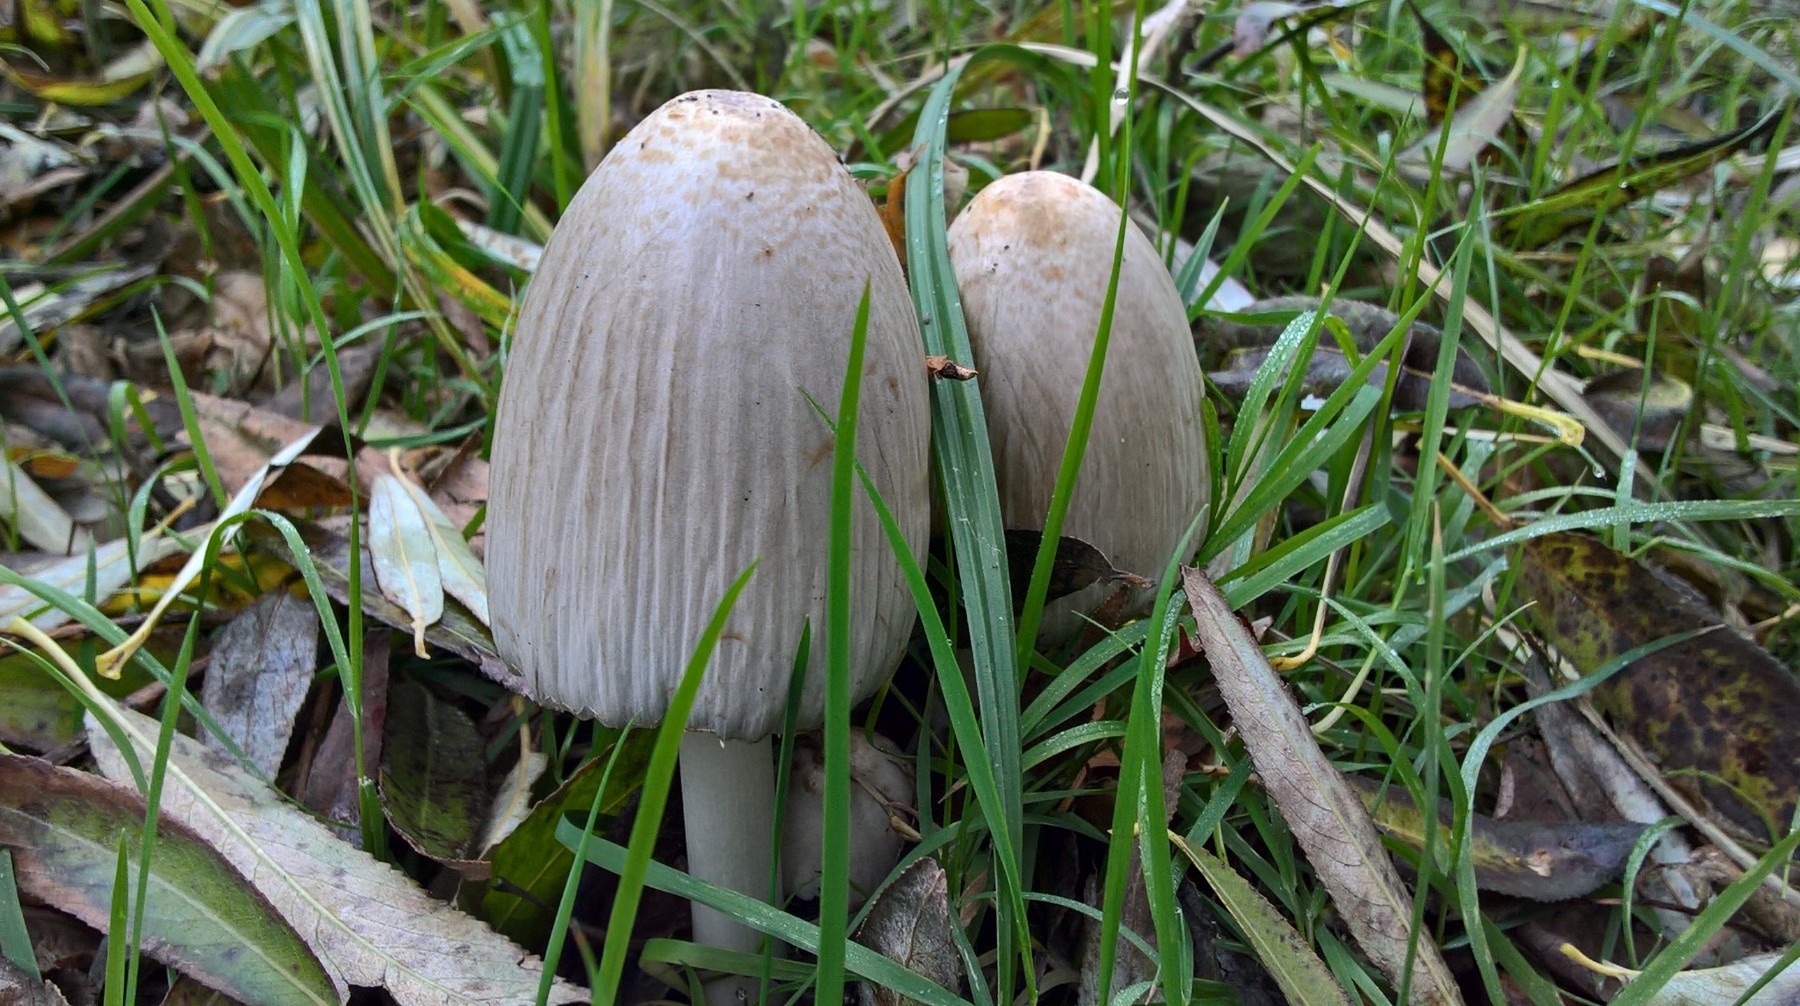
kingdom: Fungi
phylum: Basidiomycota
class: Agaricomycetes
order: Agaricales
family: Psathyrellaceae
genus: Coprinopsis
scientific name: Coprinopsis atramentaria
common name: almindelig blækhat
